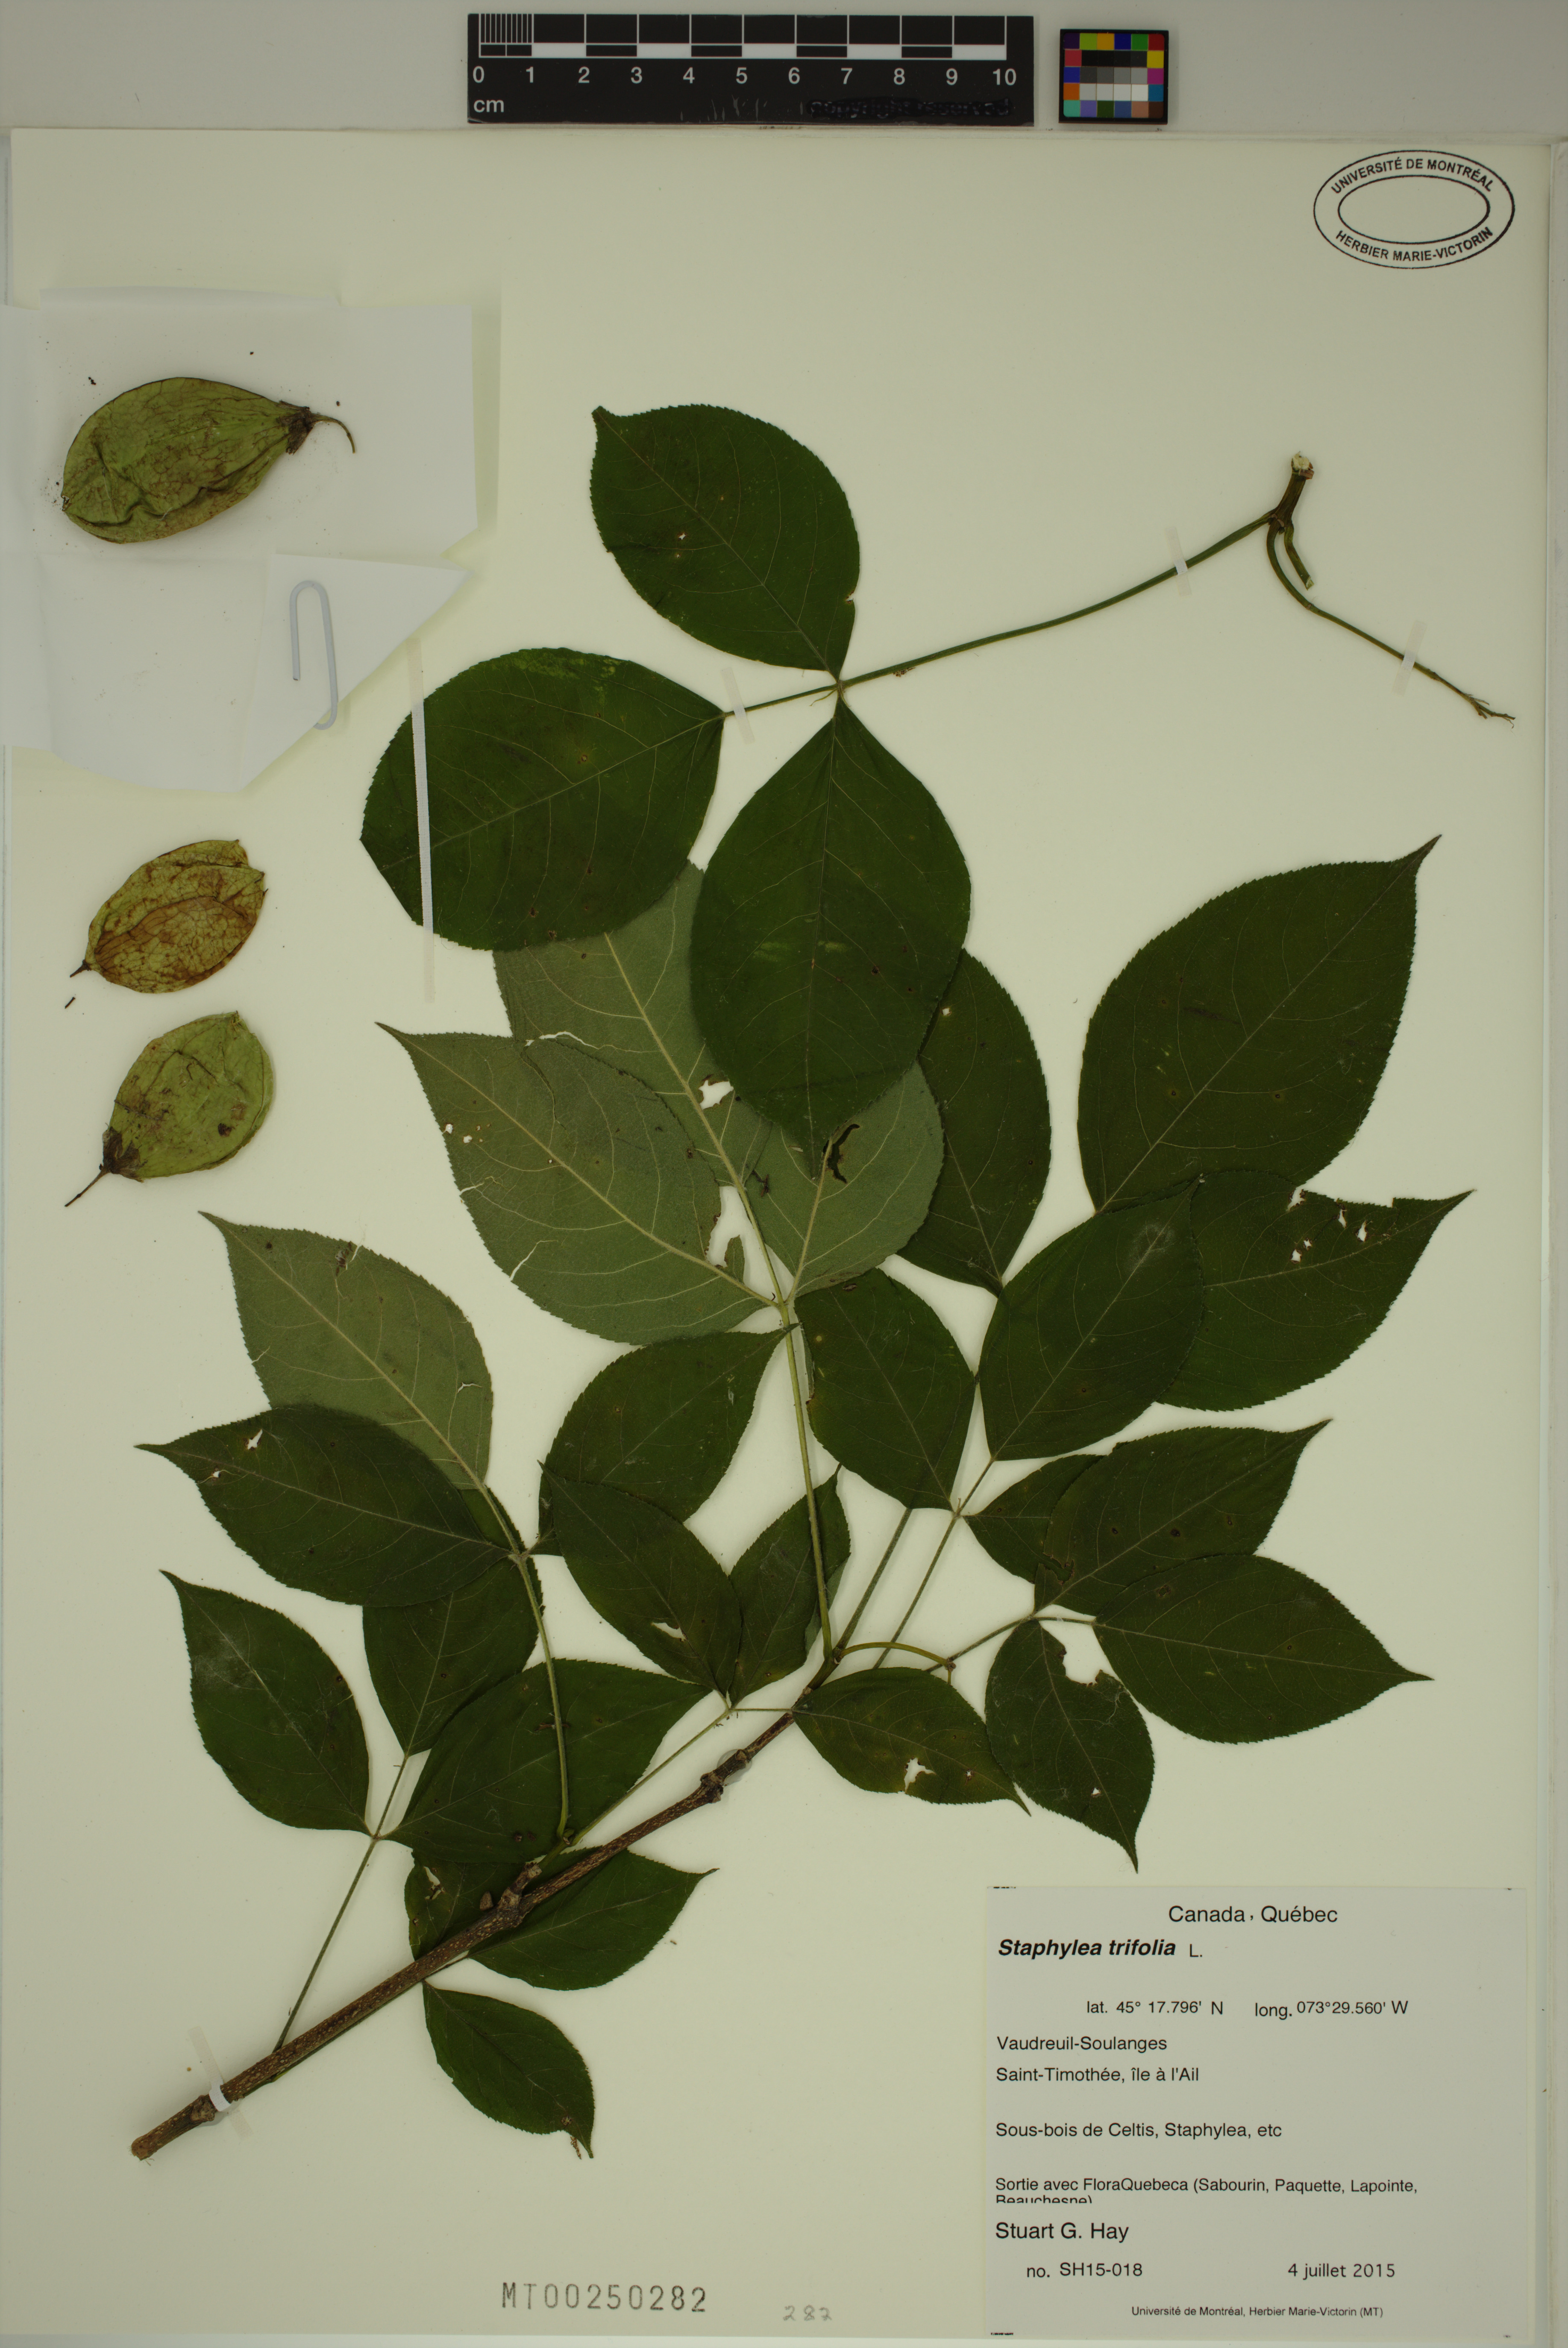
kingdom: Plantae
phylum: Tracheophyta
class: Magnoliopsida
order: Crossosomatales
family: Staphyleaceae
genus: Staphylea
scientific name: Staphylea trifolia
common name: American bladdernut
